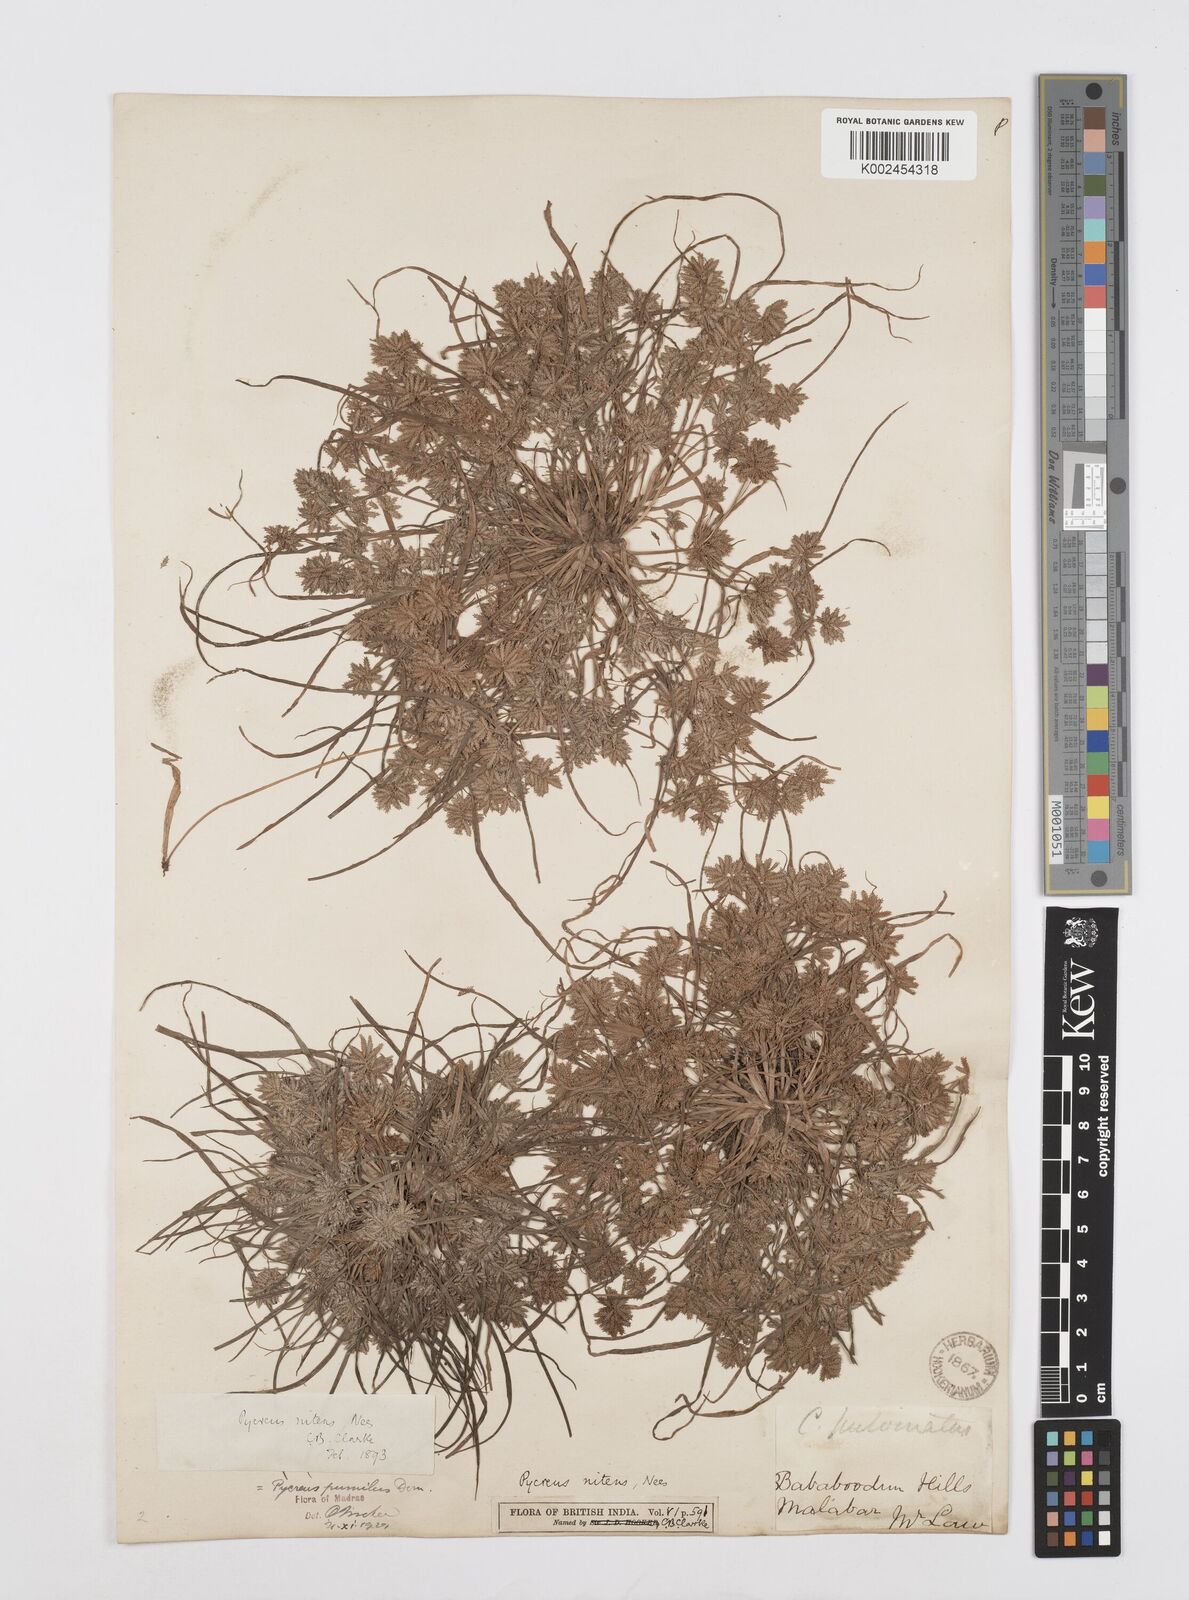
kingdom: Plantae
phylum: Tracheophyta
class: Liliopsida
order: Poales
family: Cyperaceae
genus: Cyperus
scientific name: Cyperus pumilus
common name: Low flatsedge
